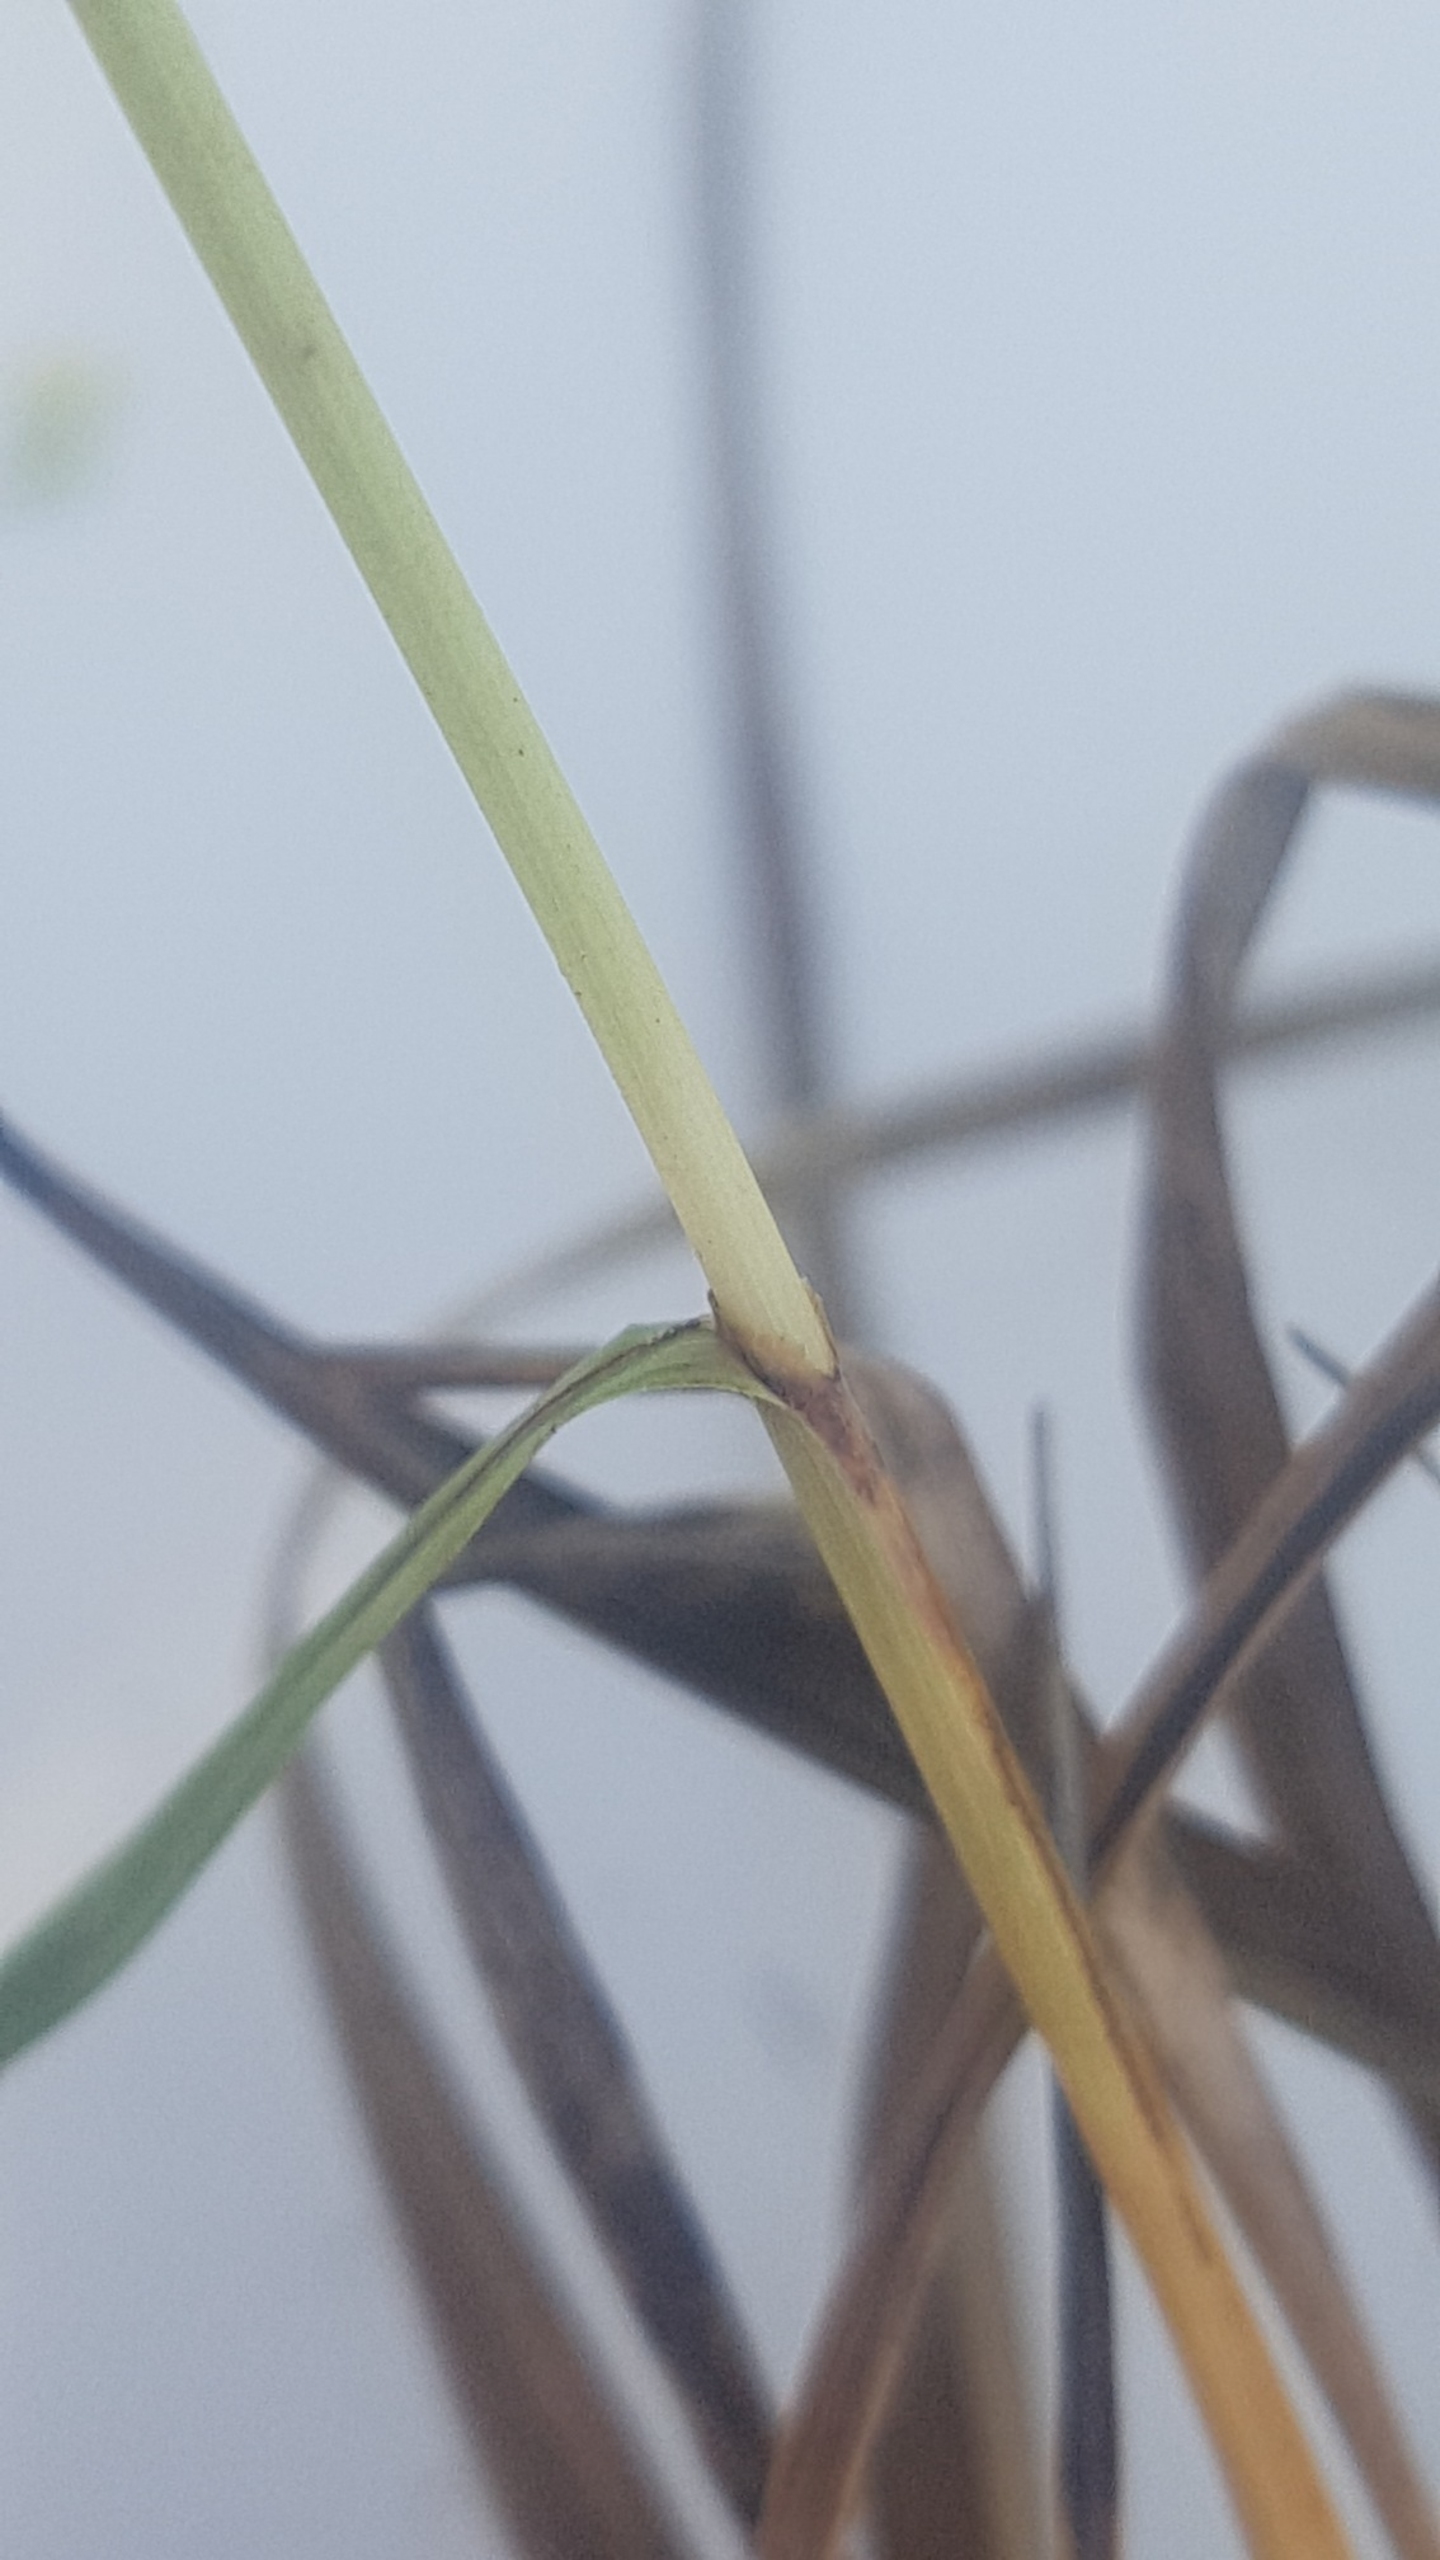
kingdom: Plantae
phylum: Tracheophyta
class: Liliopsida
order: Poales
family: Cyperaceae
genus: Carex
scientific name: Carex flacca
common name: Blågrøn star
